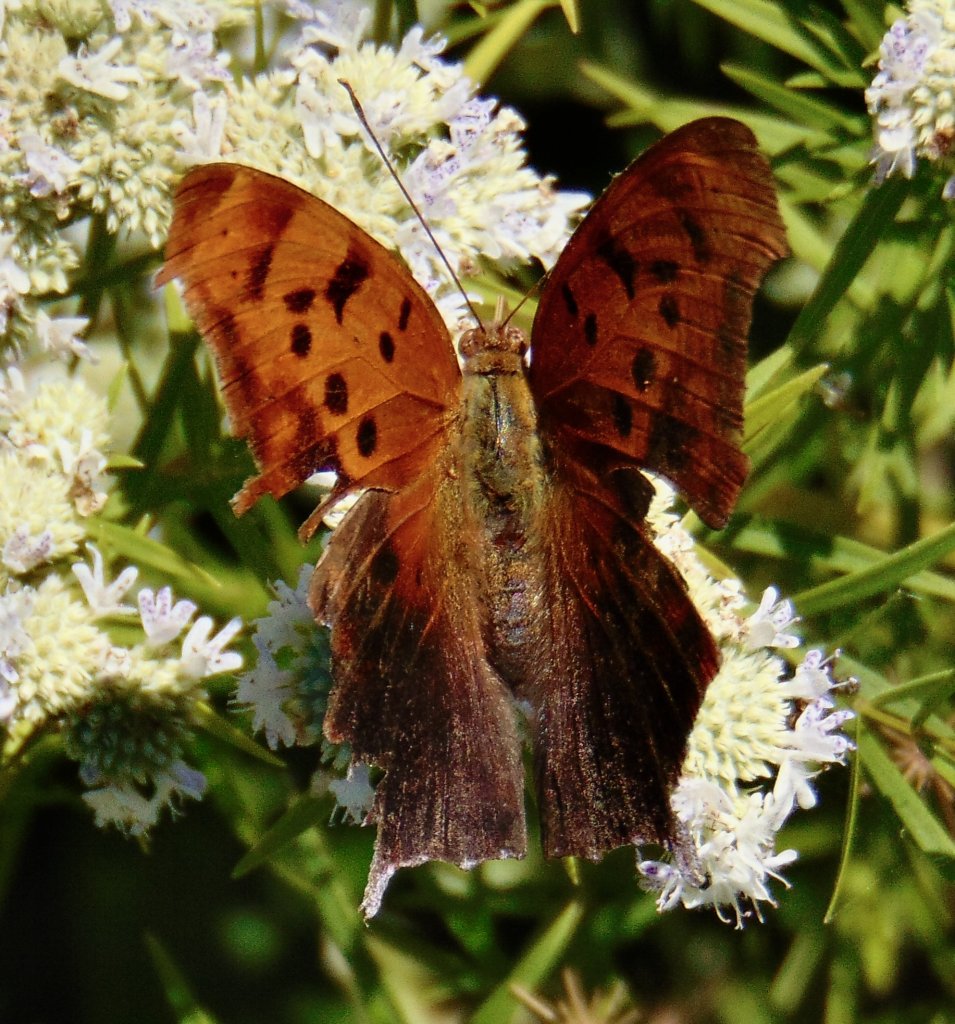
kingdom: Animalia
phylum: Arthropoda
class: Insecta
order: Lepidoptera
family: Nymphalidae
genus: Polygonia
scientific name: Polygonia interrogationis
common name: Question Mark
